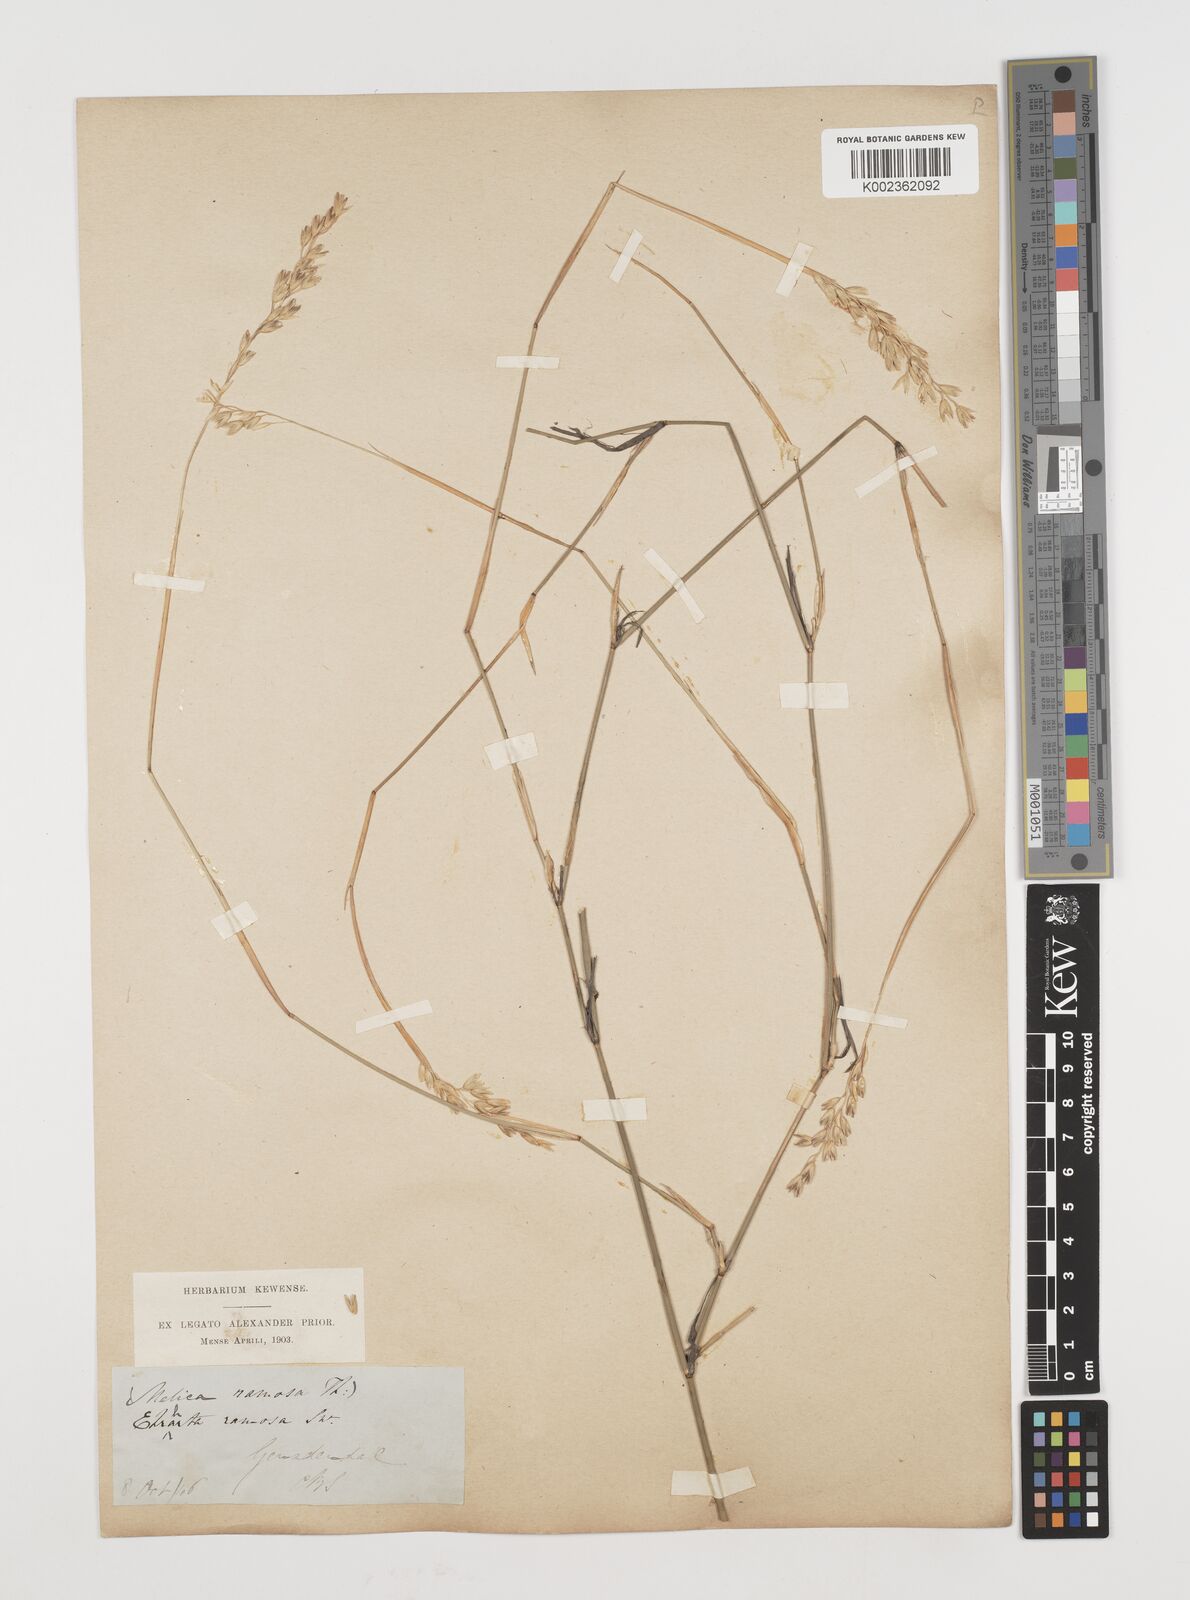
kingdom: Plantae
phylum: Tracheophyta
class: Liliopsida
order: Poales
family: Poaceae
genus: Ehrharta
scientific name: Ehrharta digyna
